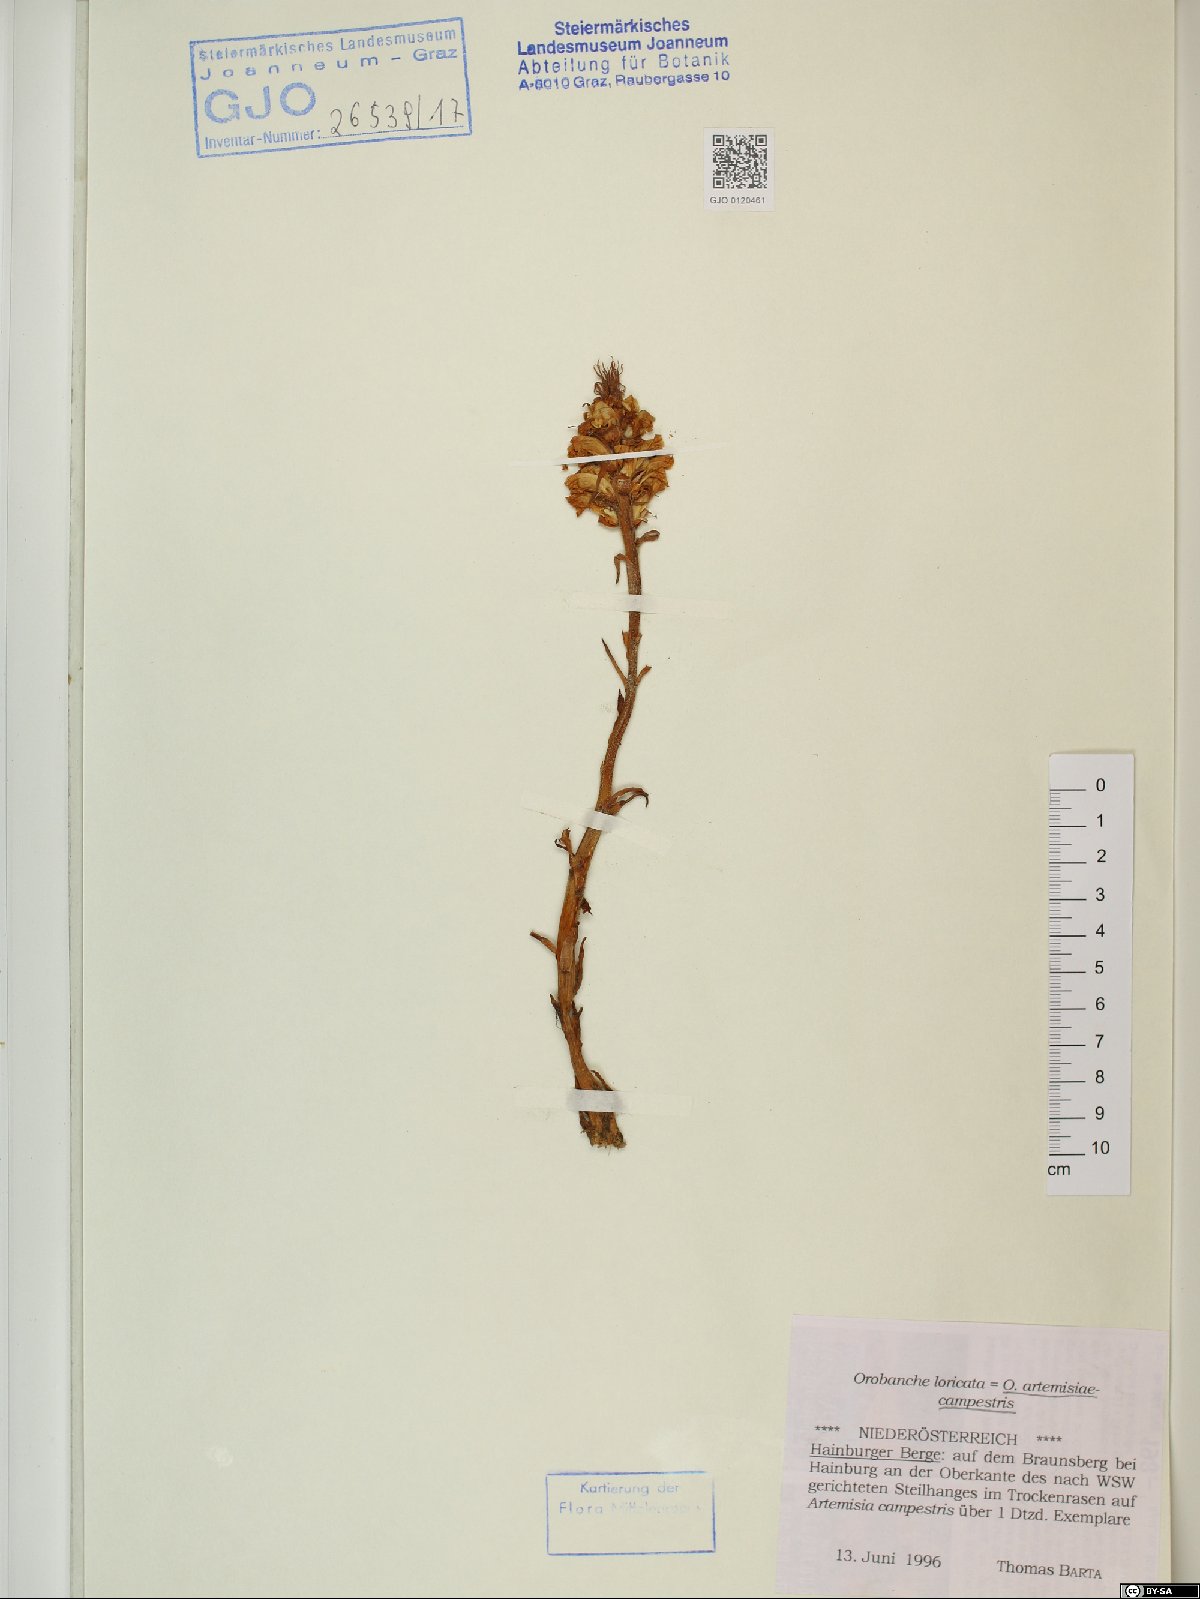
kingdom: Plantae
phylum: Tracheophyta
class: Magnoliopsida
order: Lamiales
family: Orobanchaceae
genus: Orobanche
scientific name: Orobanche artemisiae-campestris
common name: Oxtongue broomrape
